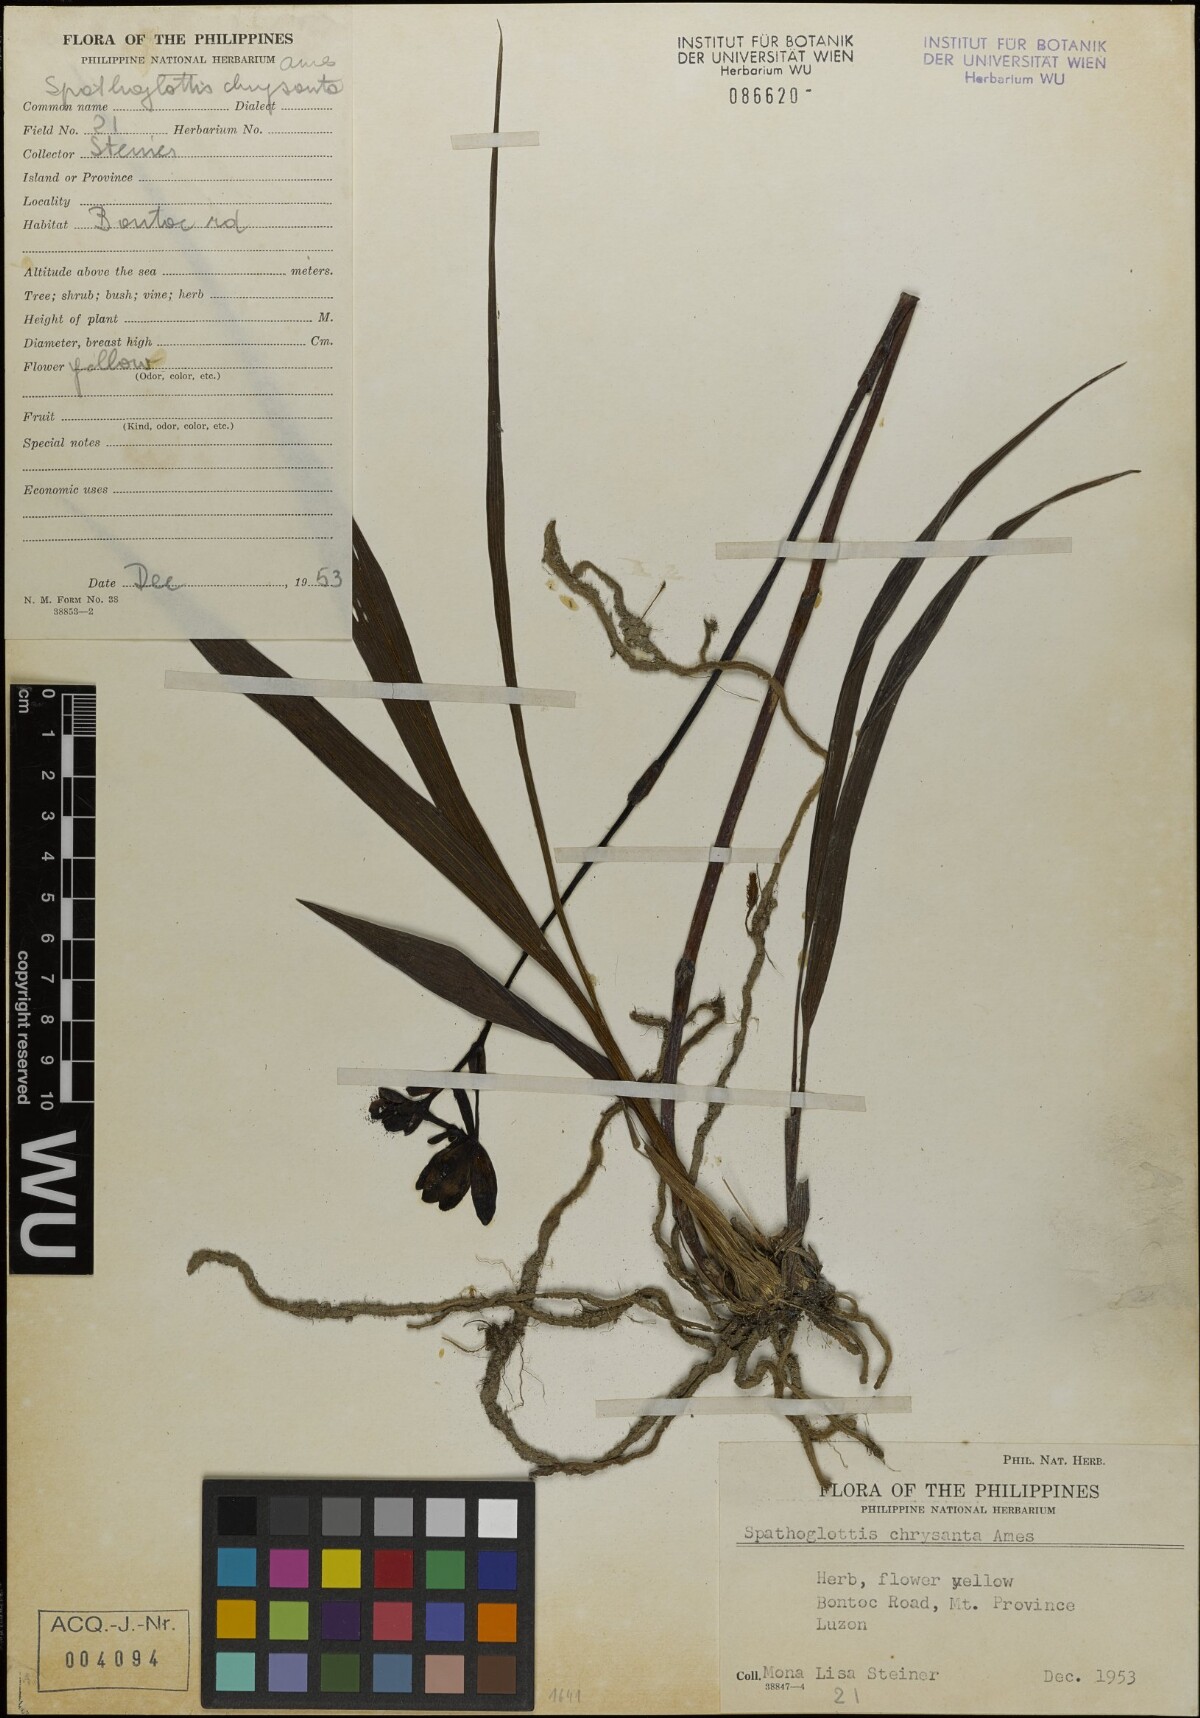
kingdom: Plantae
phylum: Tracheophyta
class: Liliopsida
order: Asparagales
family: Orchidaceae
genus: Spathoglottis
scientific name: Spathoglottis chrysantha
